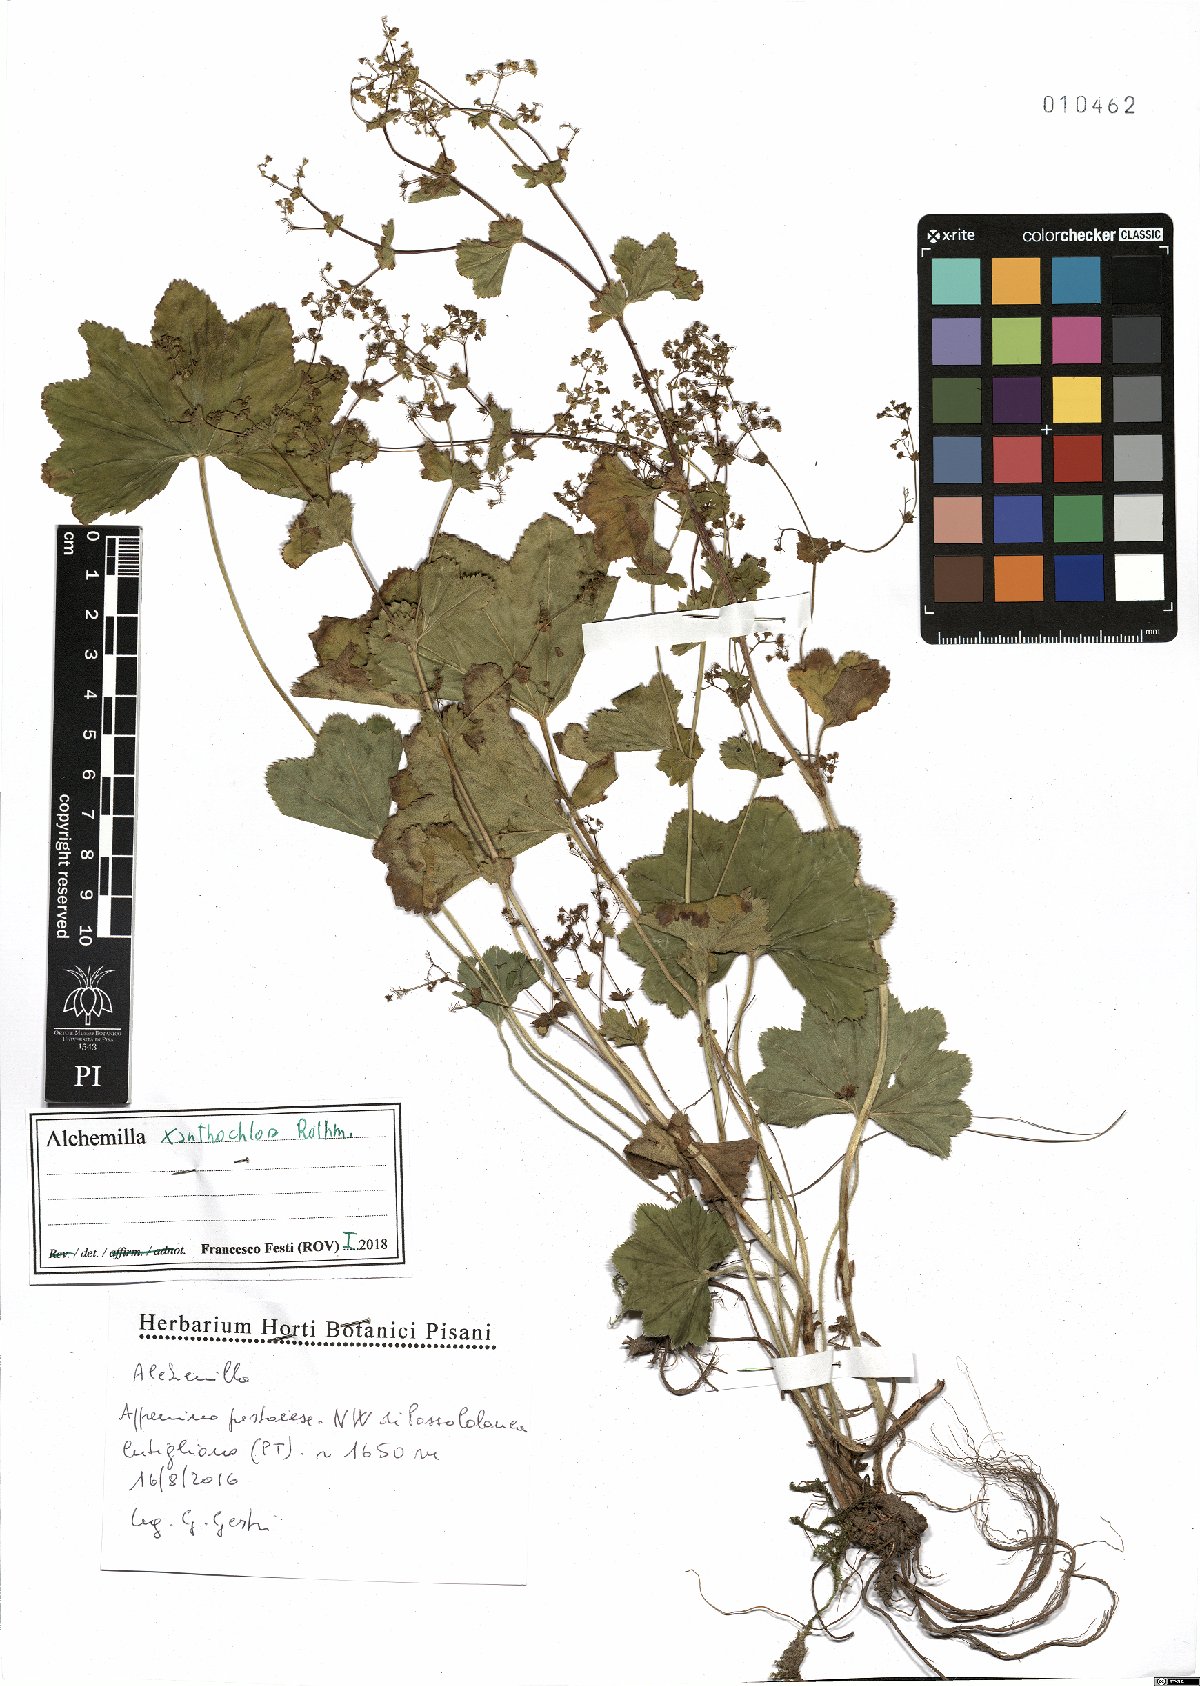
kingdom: Plantae
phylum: Tracheophyta
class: Magnoliopsida
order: Rosales
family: Rosaceae
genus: Alchemilla
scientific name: Alchemilla xanthochlora
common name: Intermediate lady's-mantle
